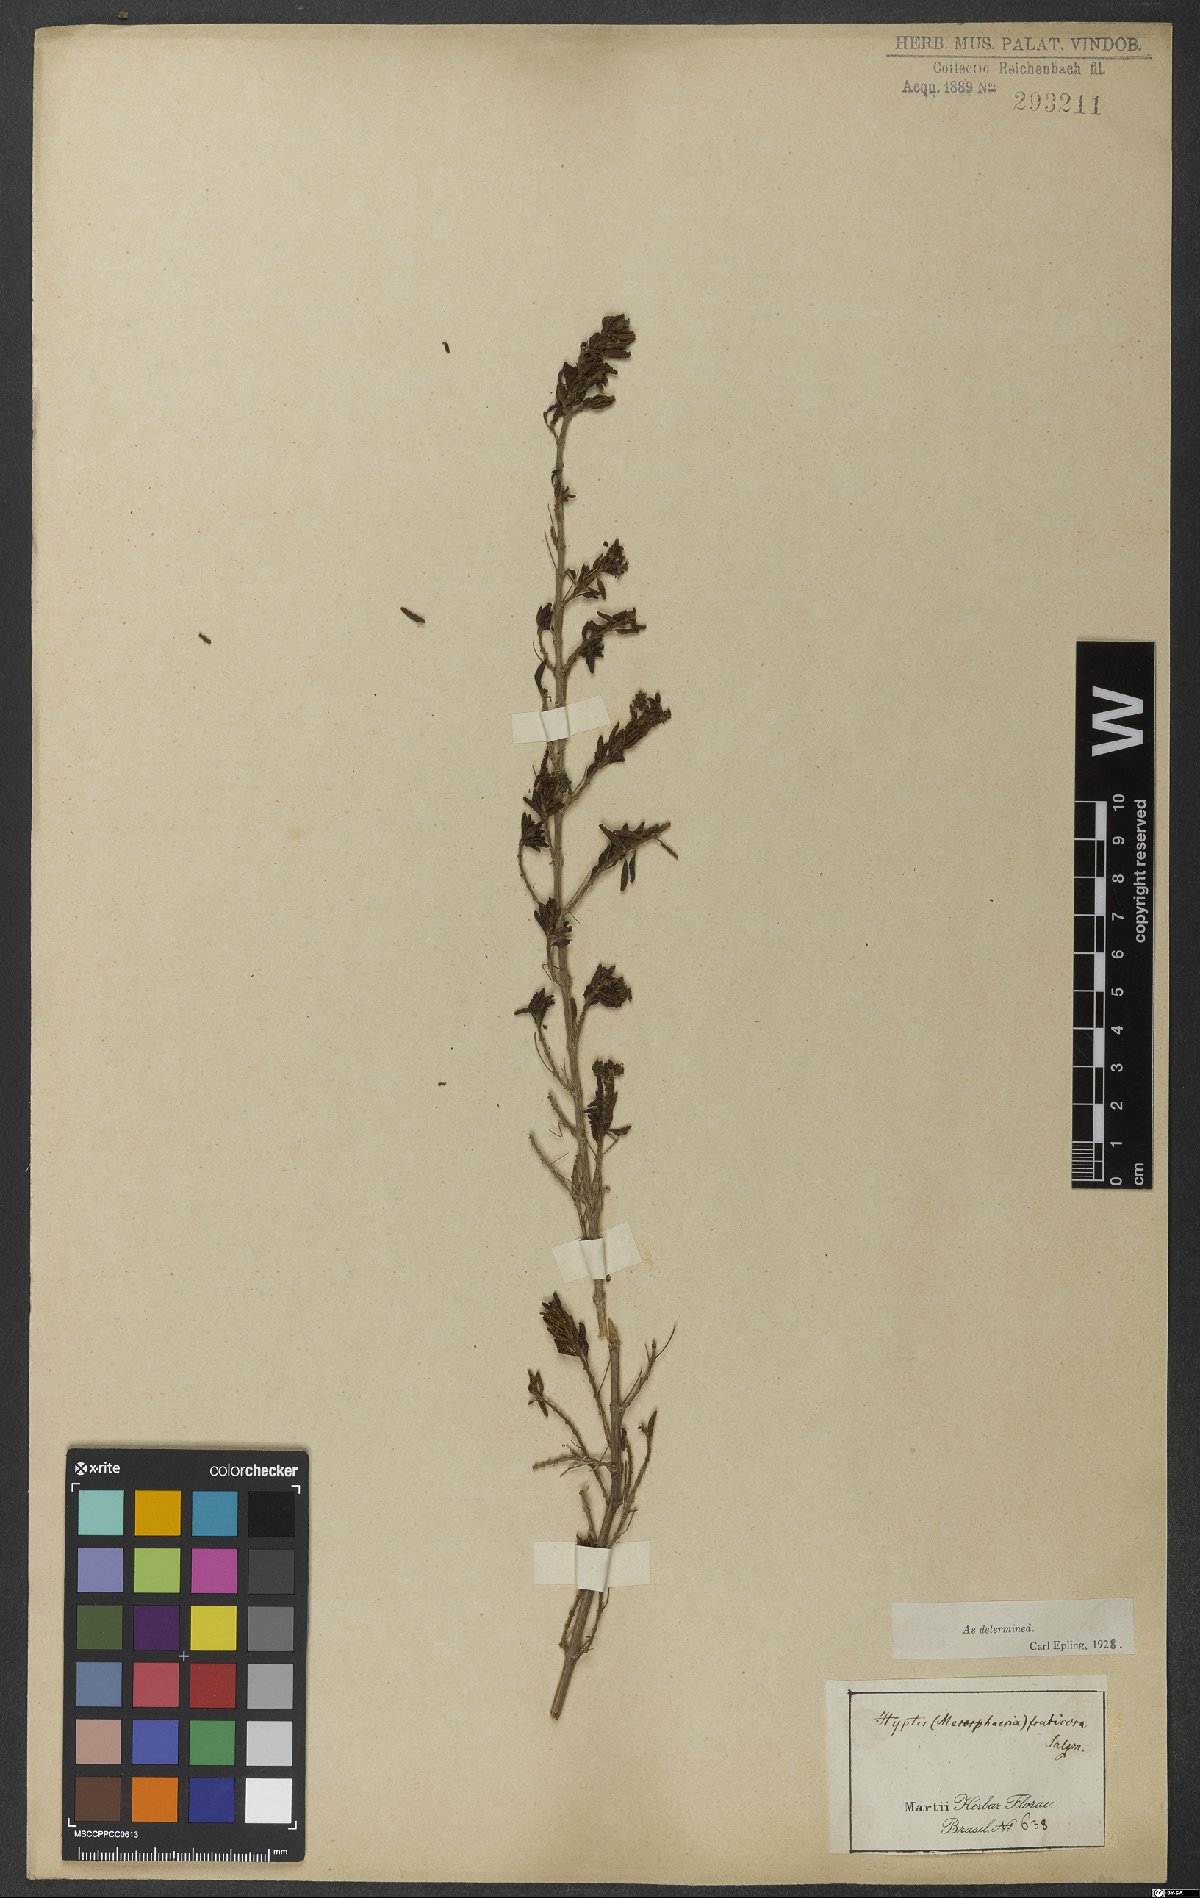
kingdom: Plantae
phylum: Tracheophyta
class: Magnoliopsida
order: Lamiales
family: Lamiaceae
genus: Eplingiella
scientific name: Eplingiella fruticosa
